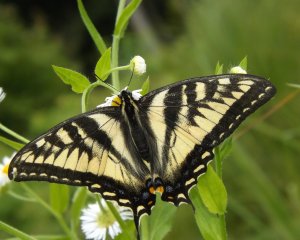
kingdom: Animalia
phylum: Arthropoda
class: Insecta
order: Lepidoptera
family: Papilionidae
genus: Pterourus
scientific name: Pterourus canadensis
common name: Canadian Tiger Swallowtail
